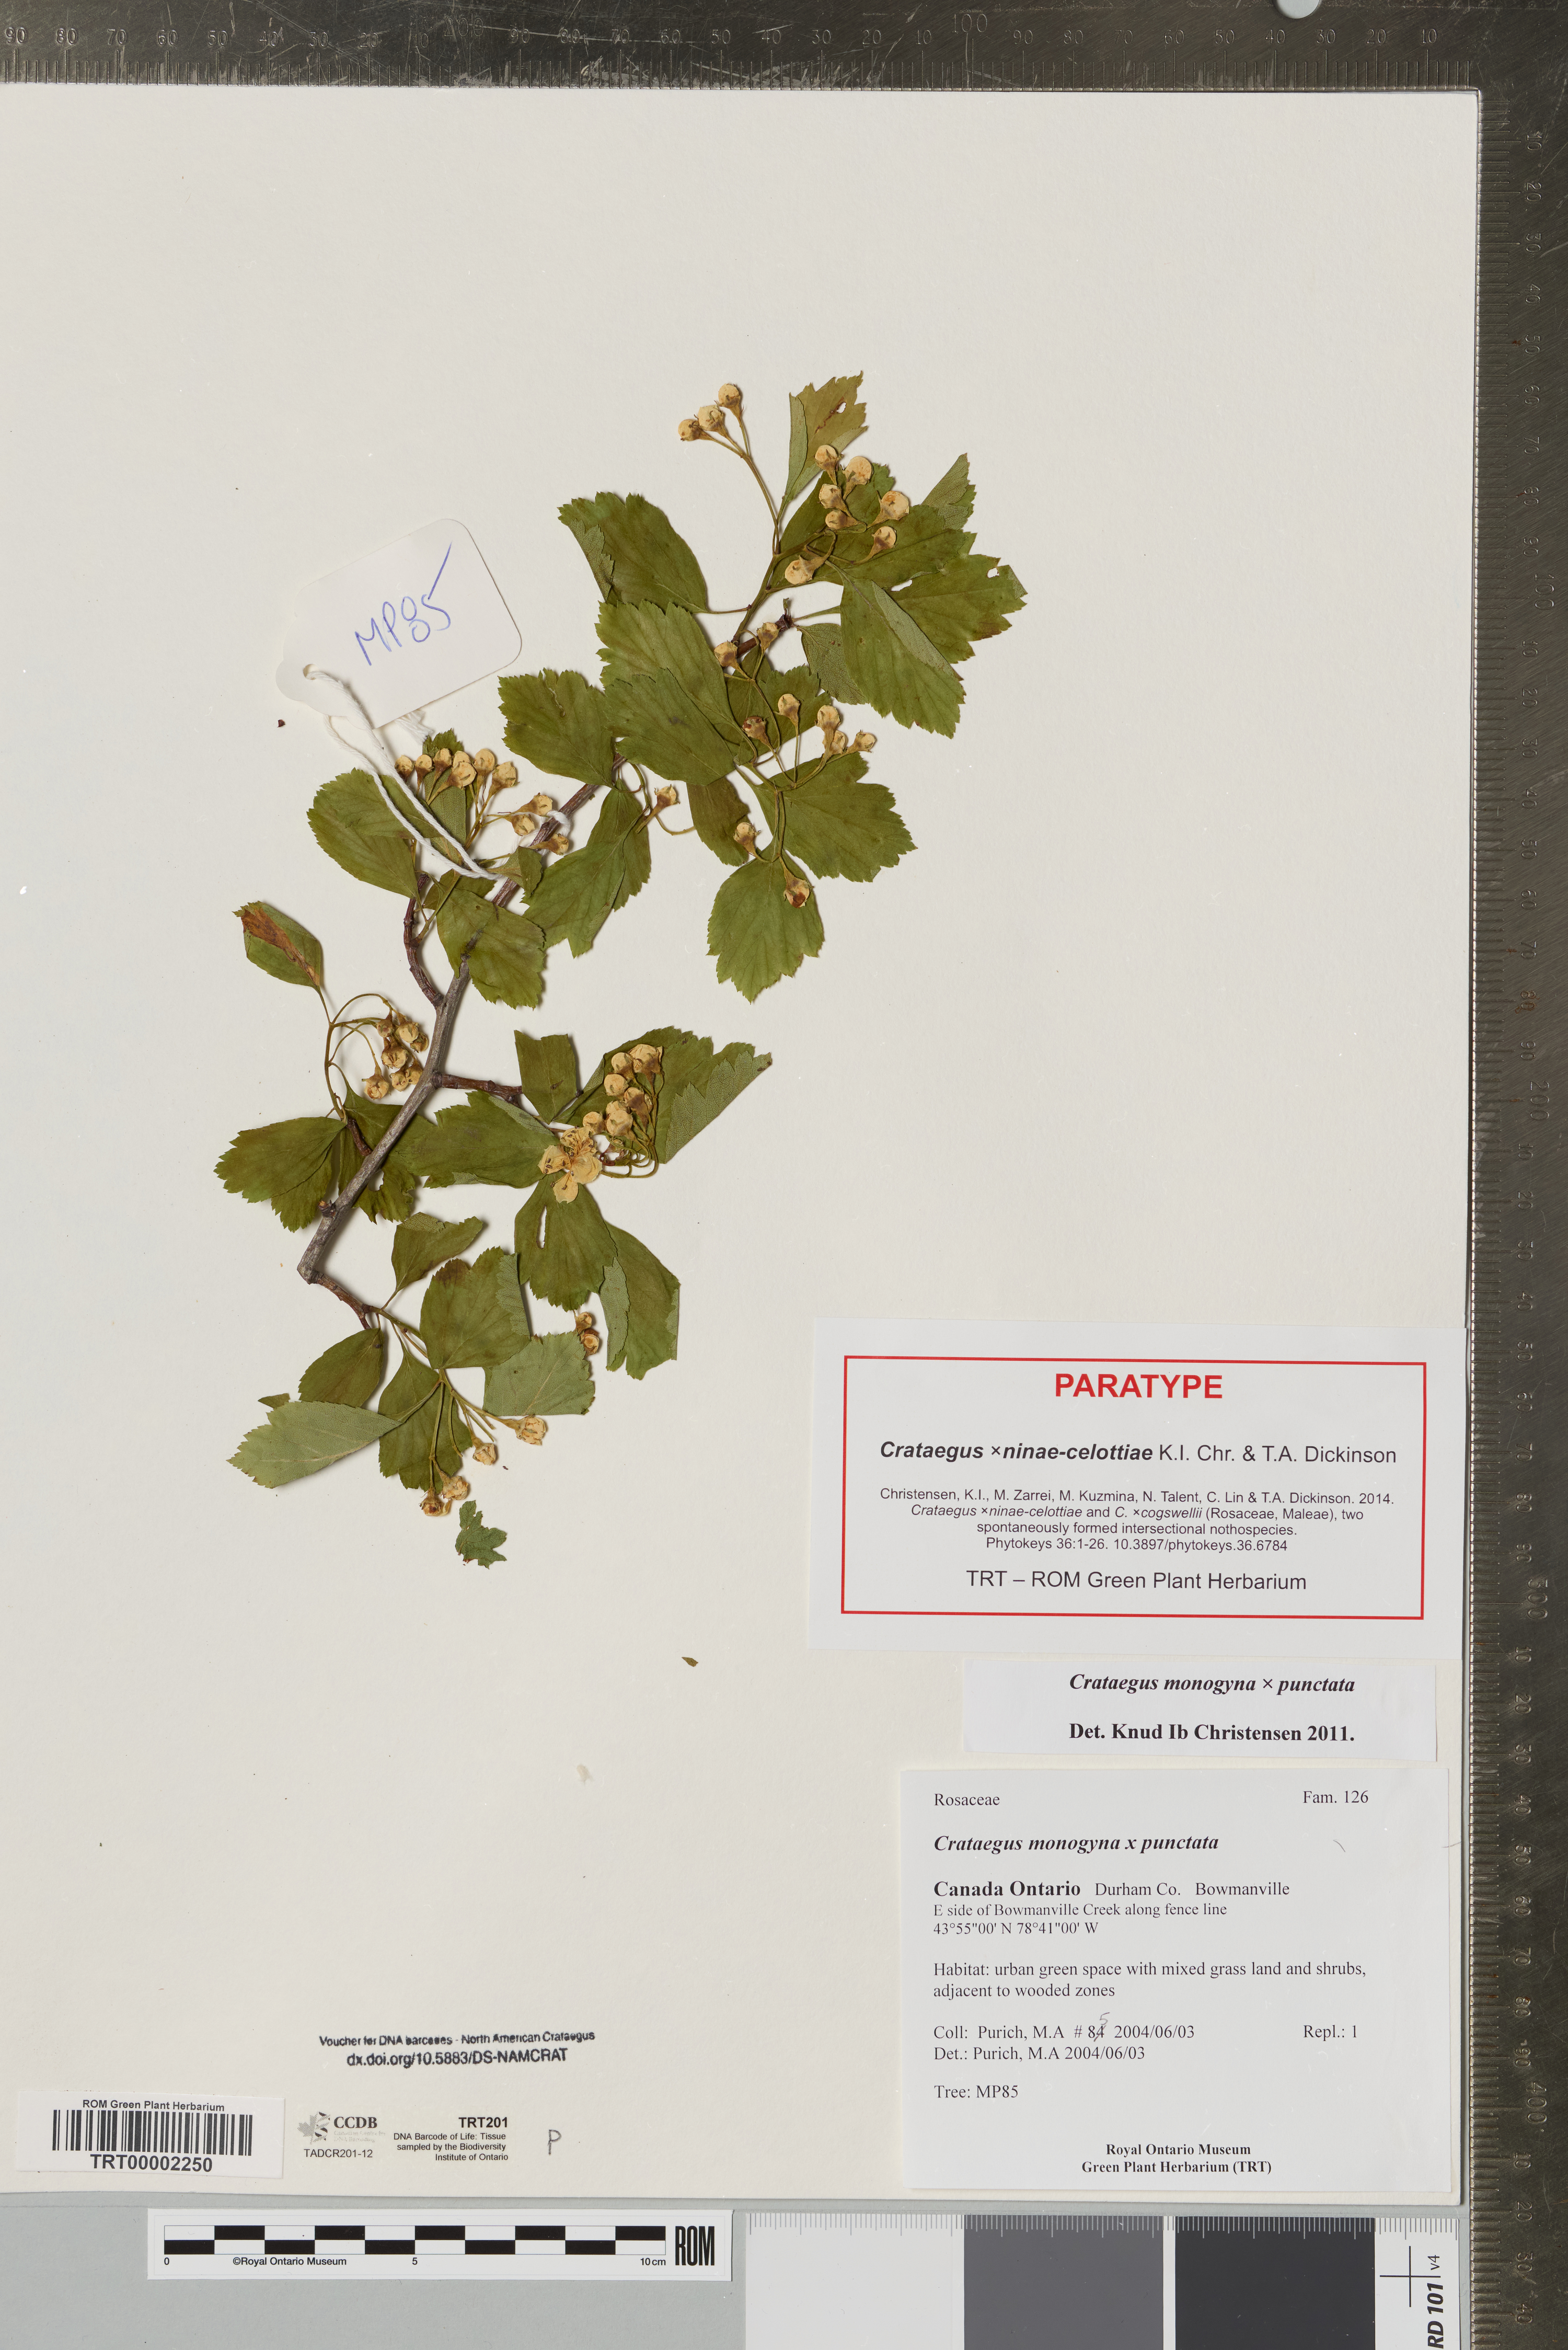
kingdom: Plantae
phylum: Tracheophyta
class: Magnoliopsida
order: Rosales
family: Rosaceae
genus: Crataegus
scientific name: Crataegus
